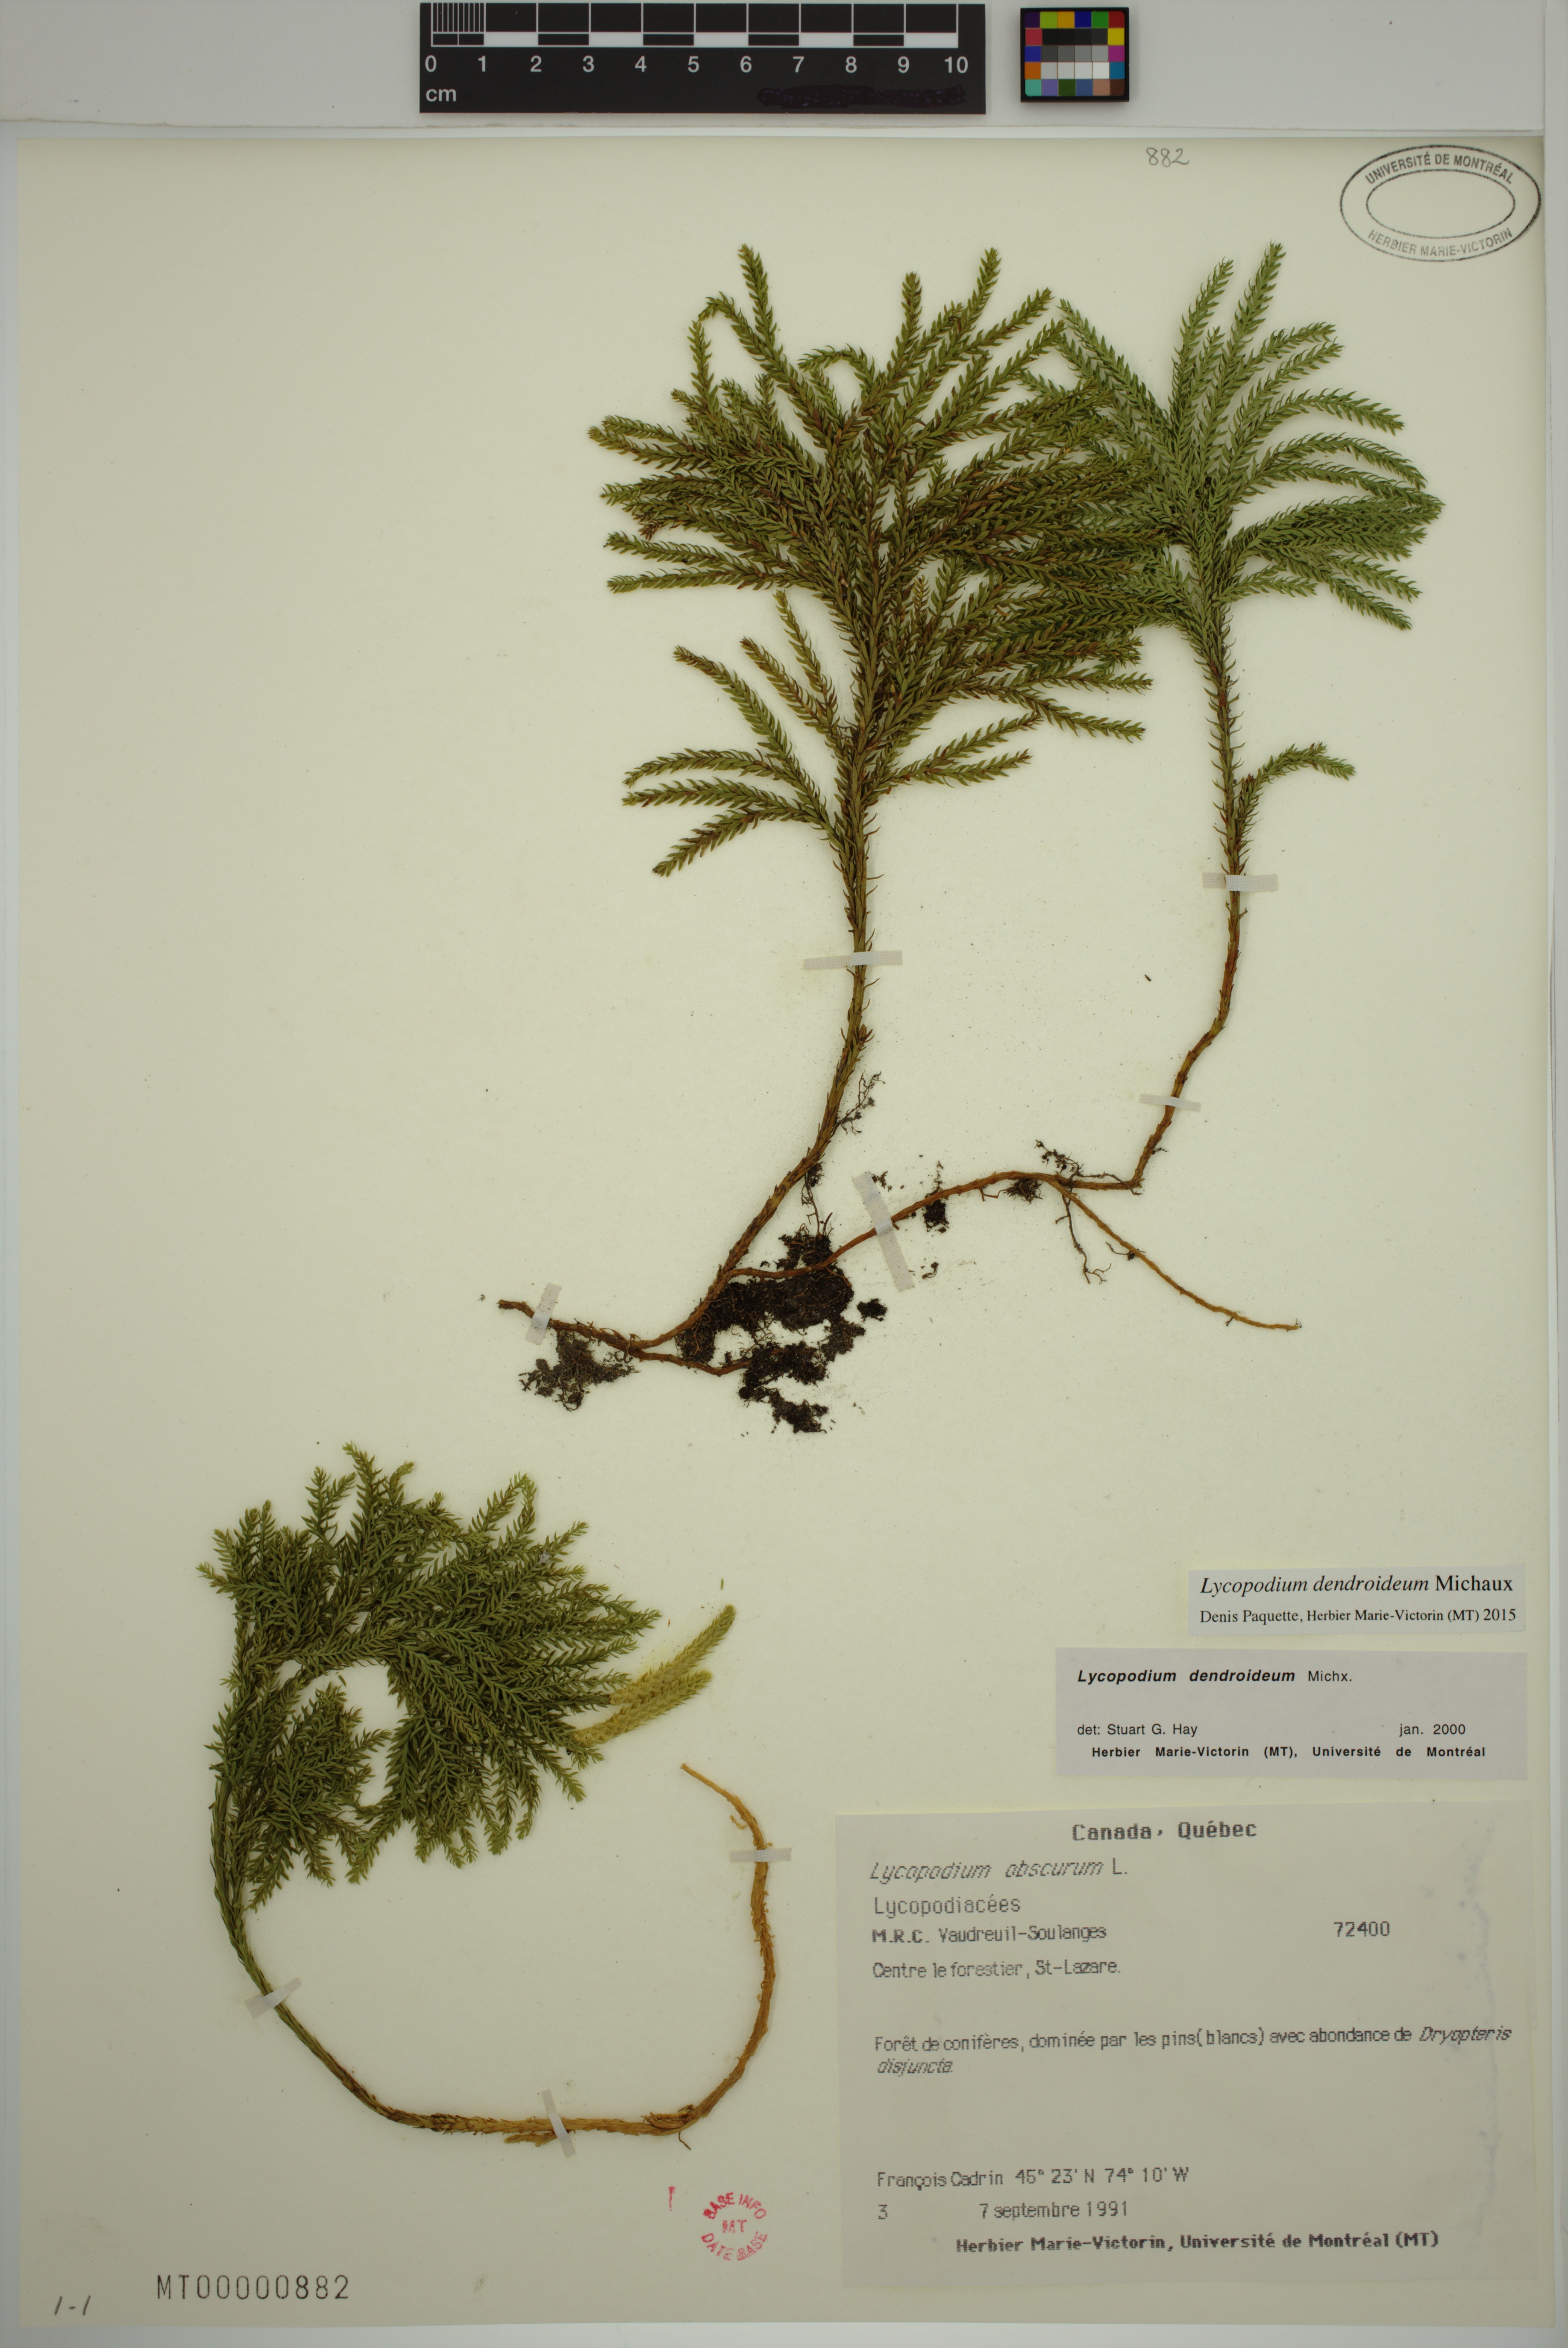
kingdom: Plantae
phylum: Tracheophyta
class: Lycopodiopsida
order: Lycopodiales
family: Lycopodiaceae
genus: Dendrolycopodium
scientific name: Dendrolycopodium obscurum
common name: Common ground-pine
